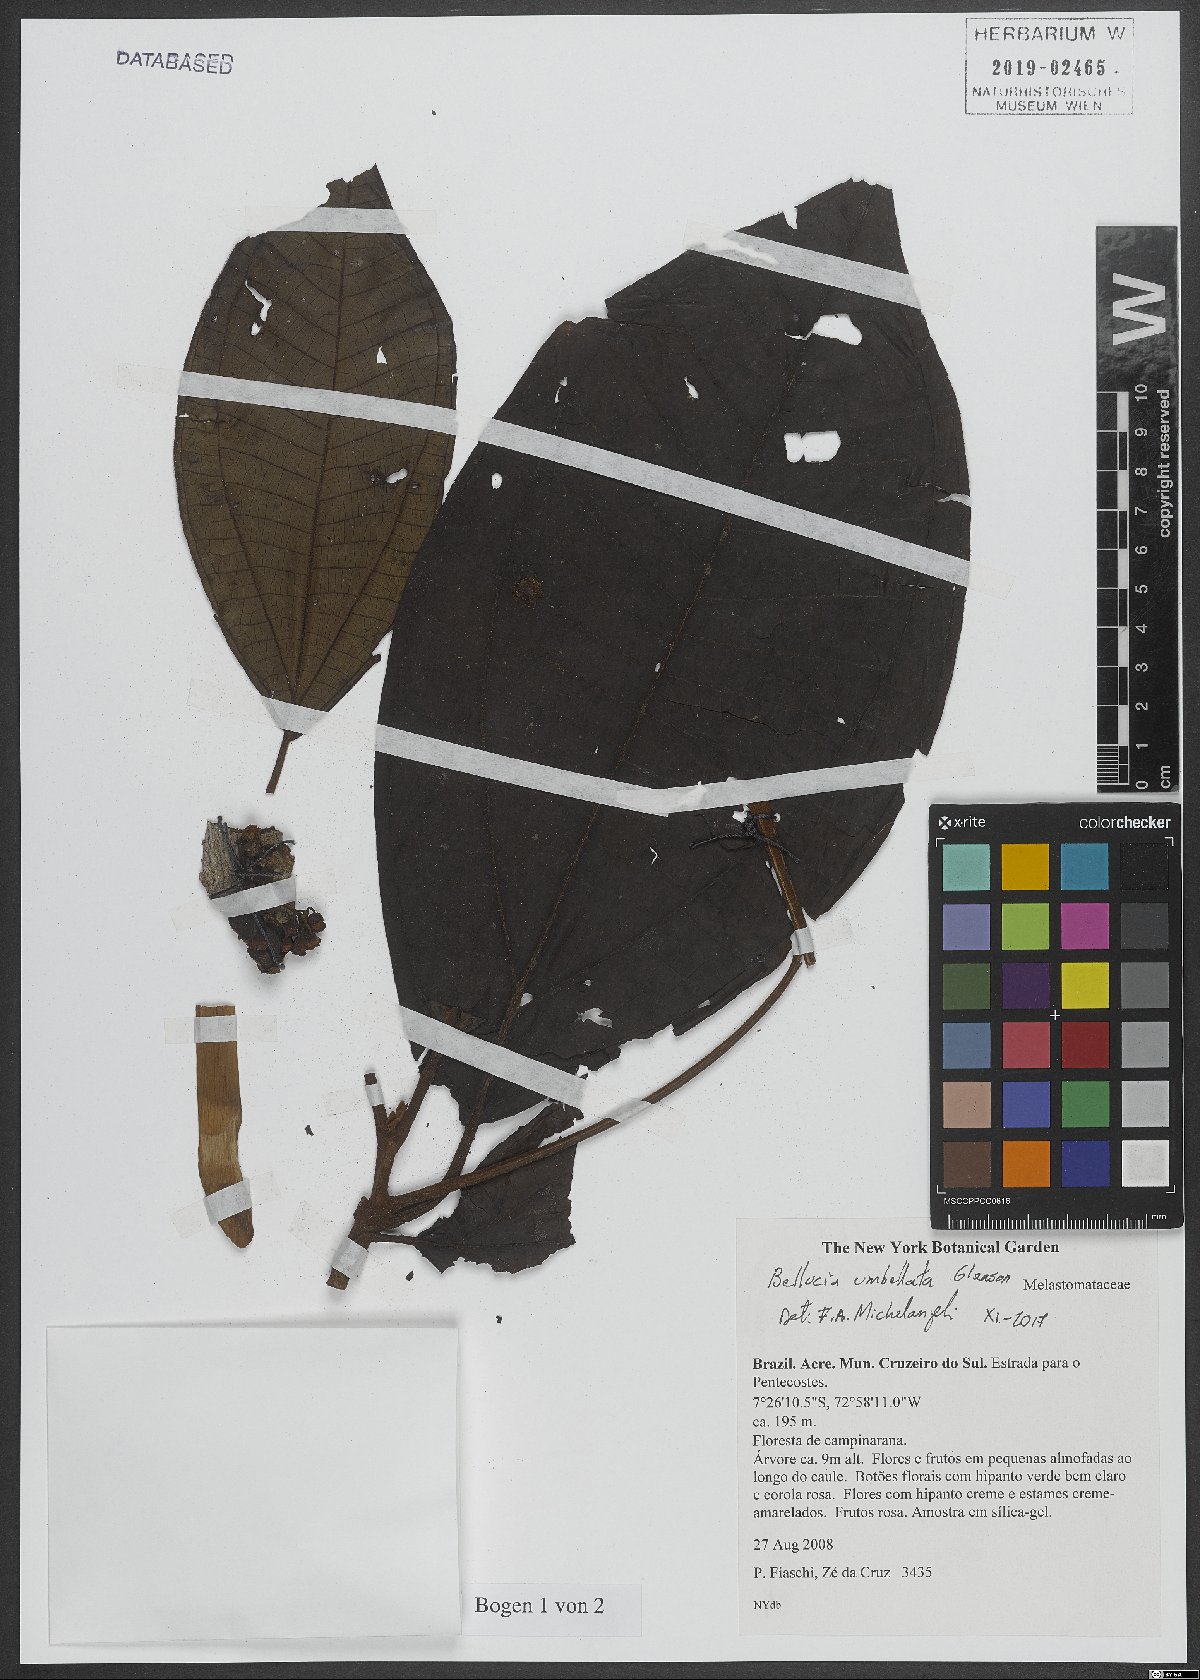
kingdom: Plantae
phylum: Tracheophyta
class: Magnoliopsida
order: Myrtales
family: Melastomataceae
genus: Bellucia
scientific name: Bellucia umbellata
